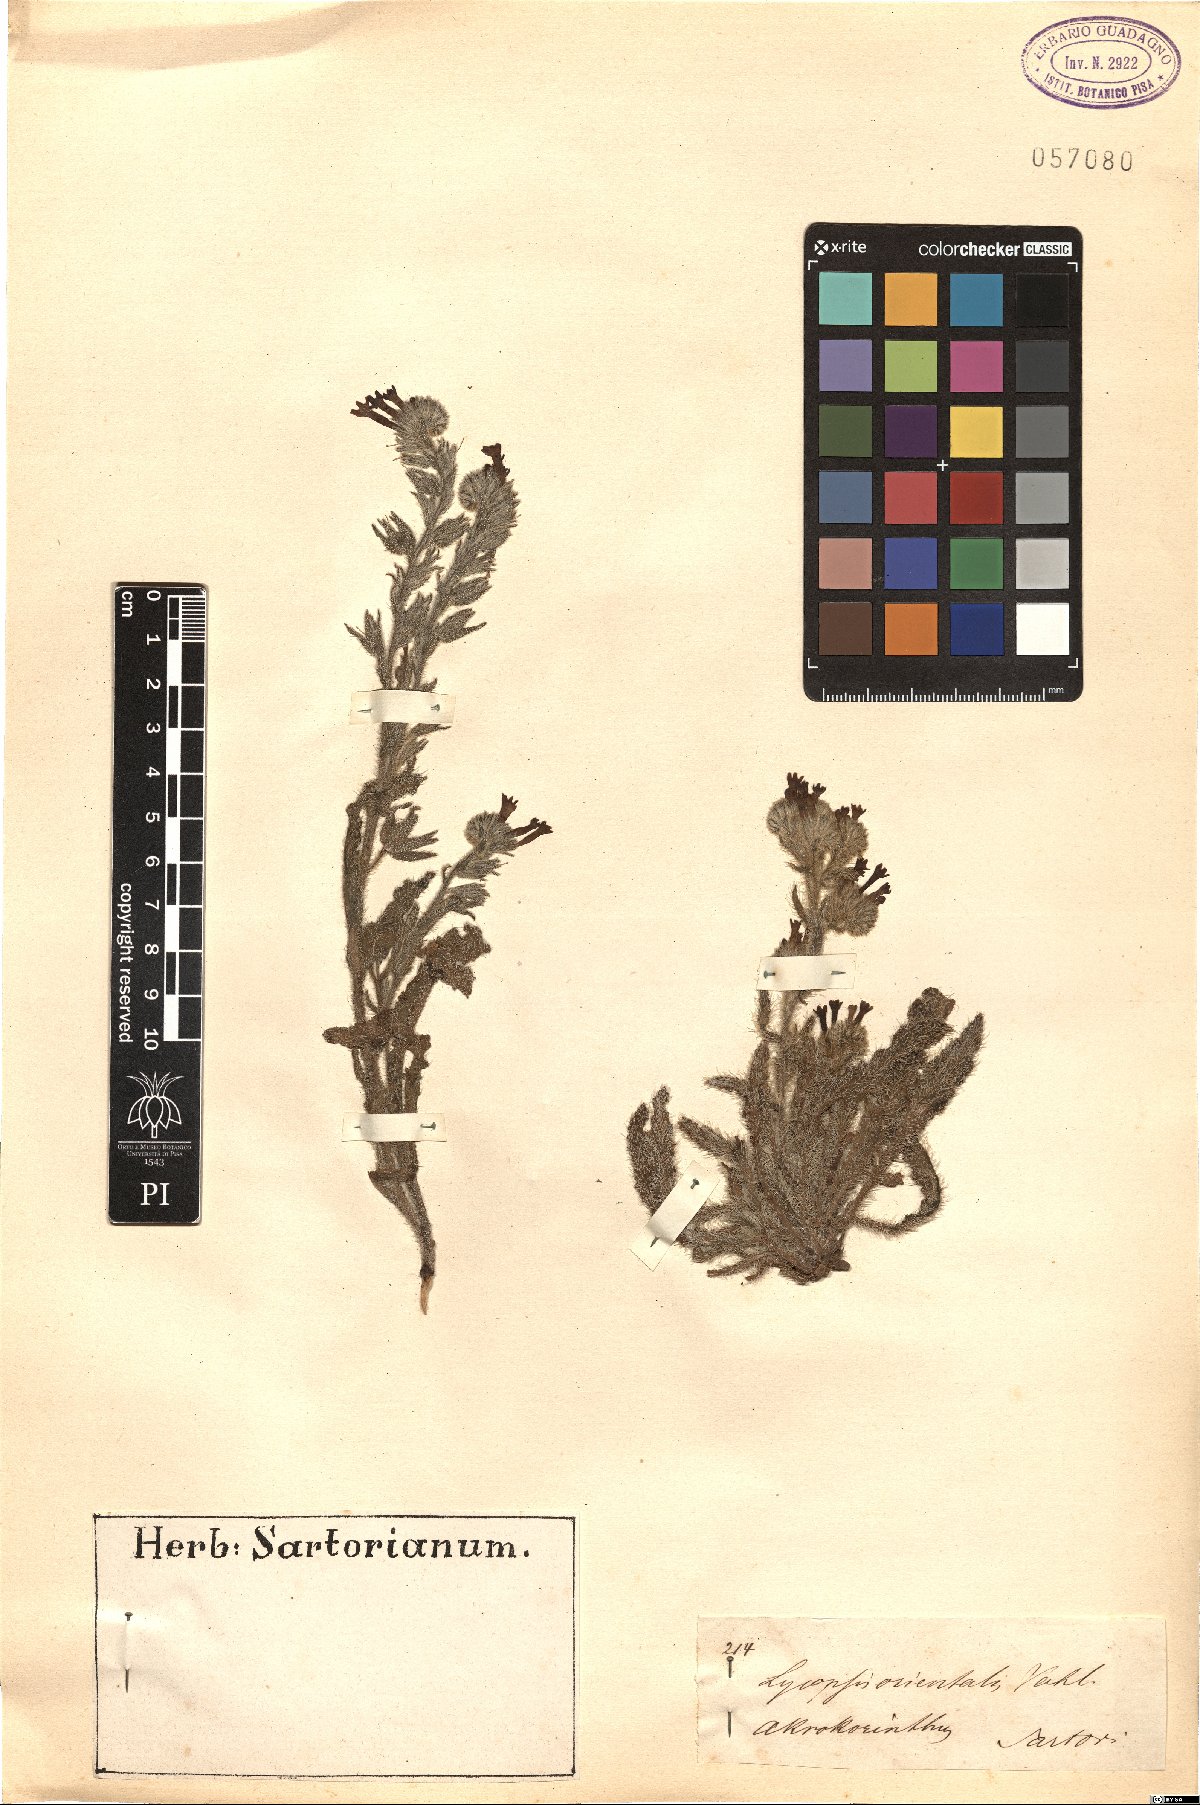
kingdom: Plantae
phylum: Tracheophyta
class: Magnoliopsida
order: Boraginales
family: Boraginaceae
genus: Lycopsis
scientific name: Lycopsis arvensis
